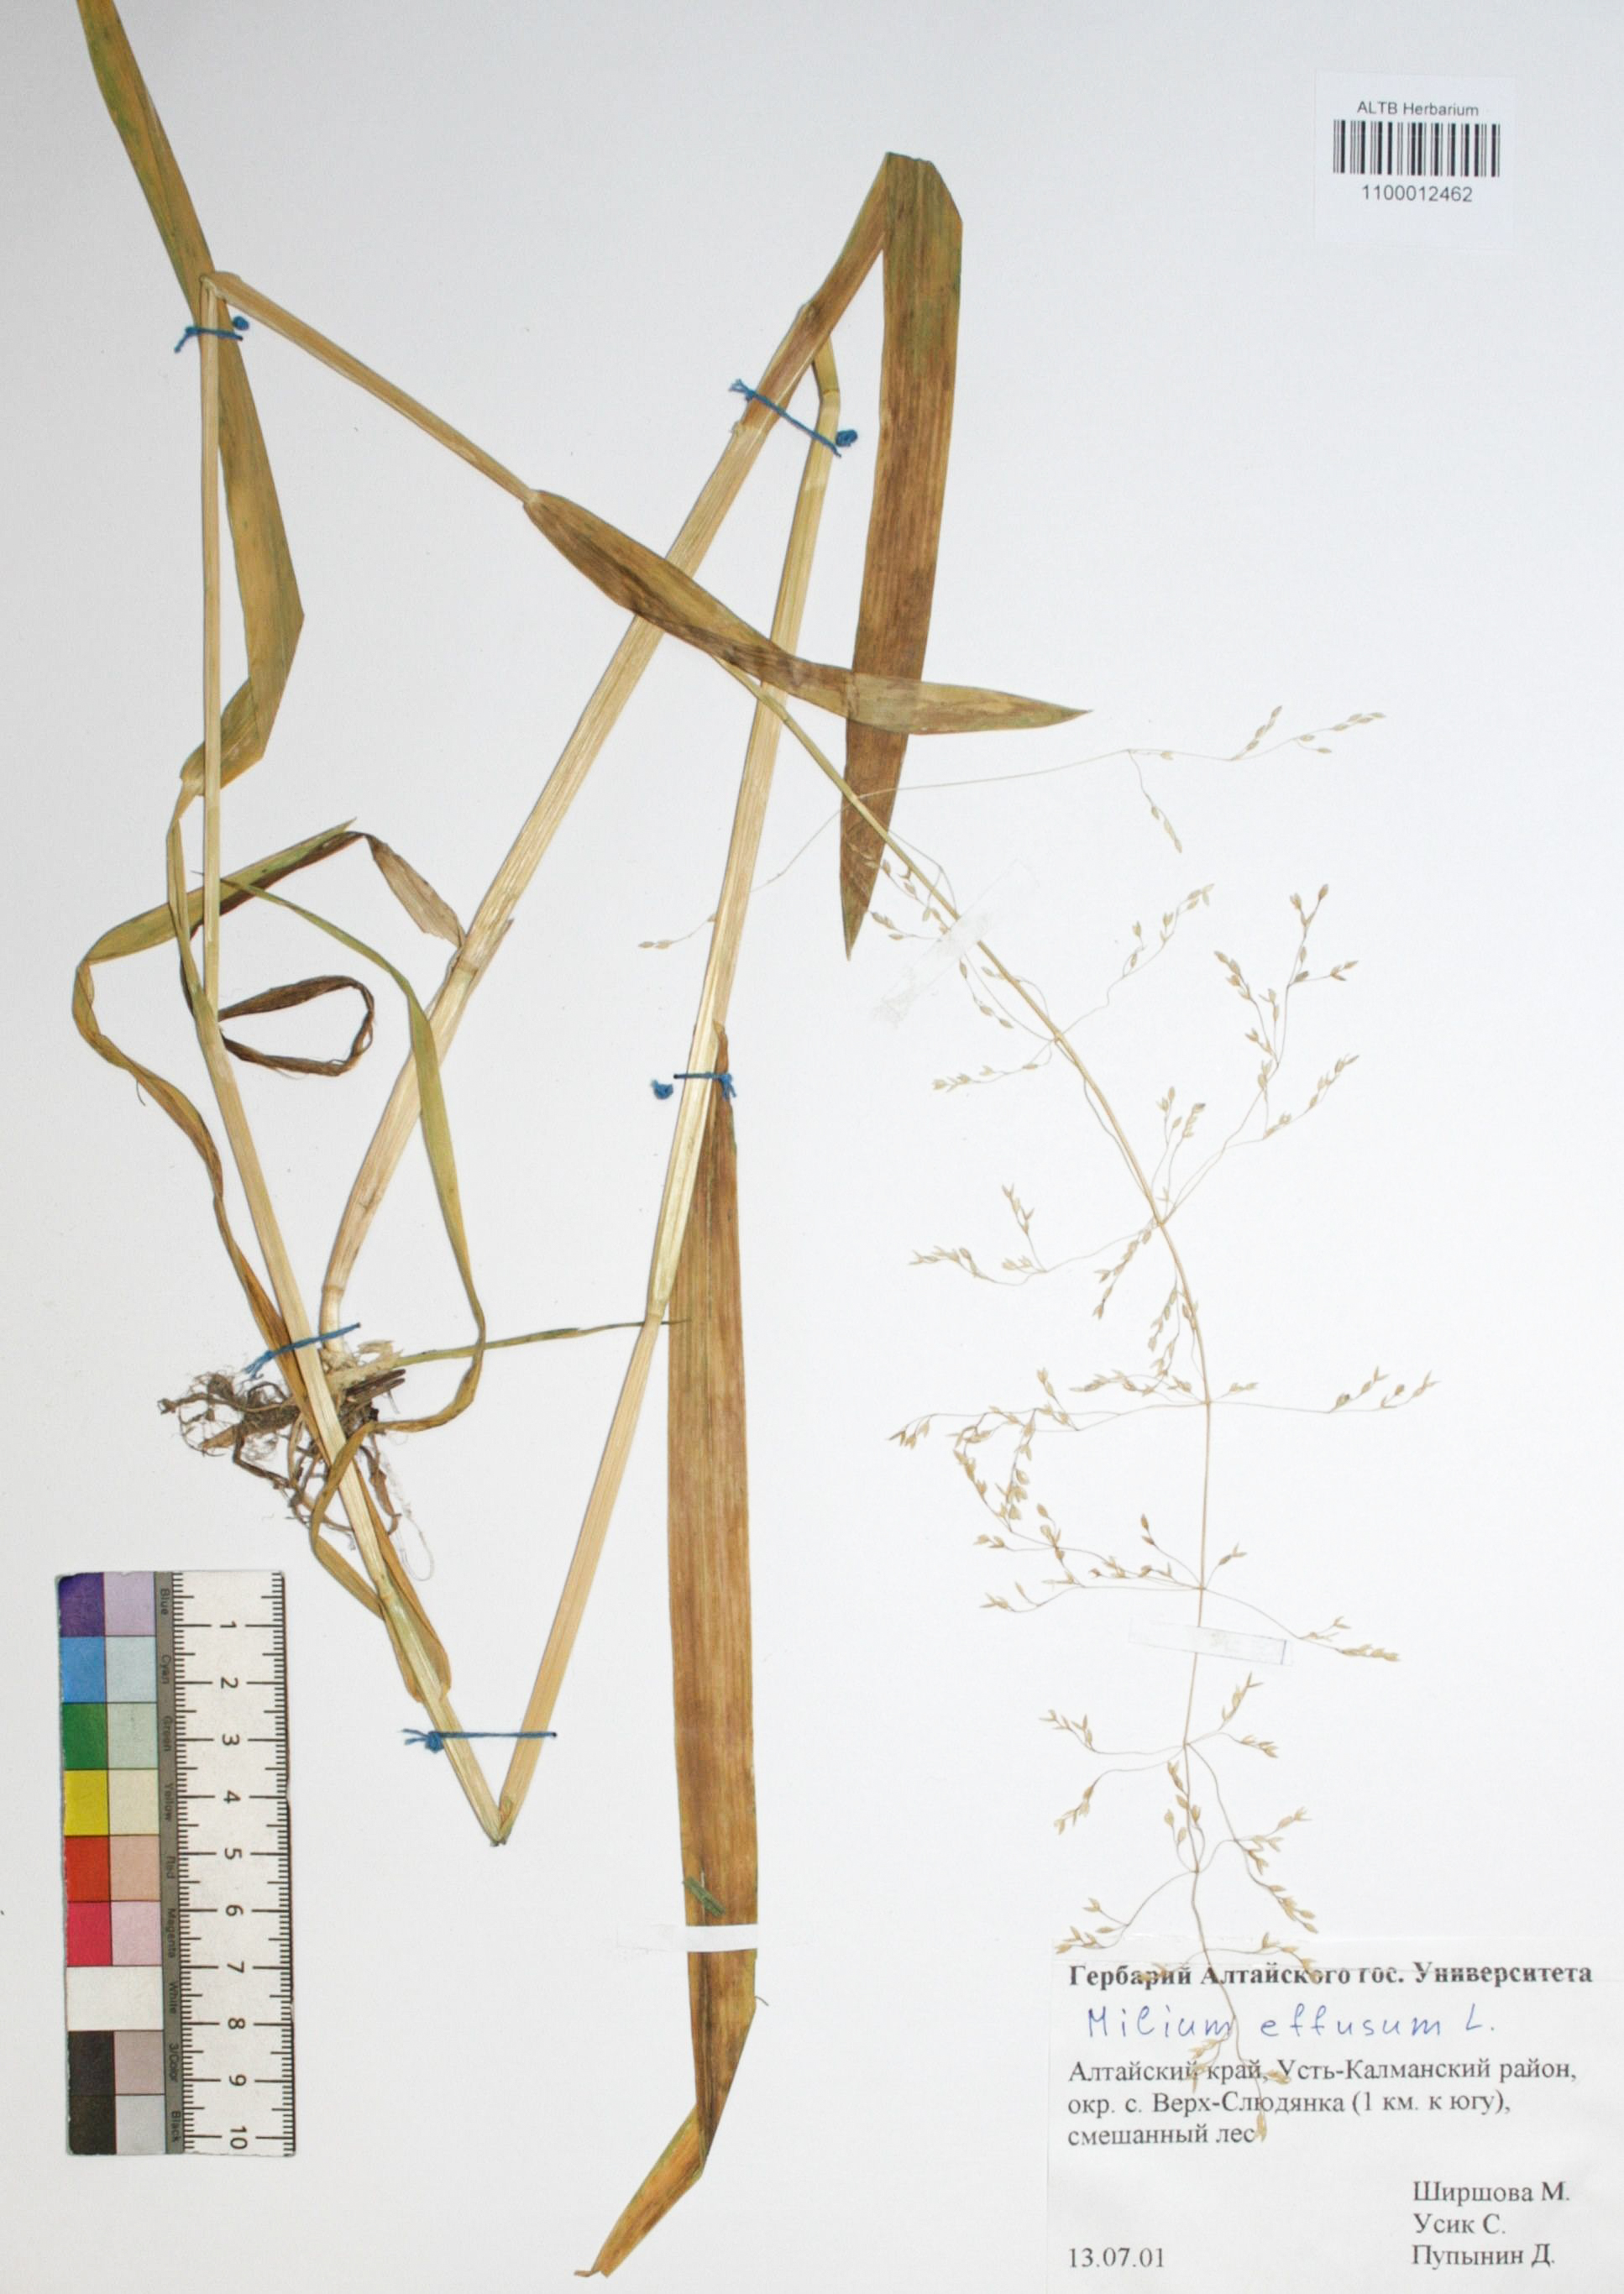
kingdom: Plantae
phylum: Tracheophyta
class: Liliopsida
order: Poales
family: Poaceae
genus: Milium
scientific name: Milium effusum
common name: Wood millet
